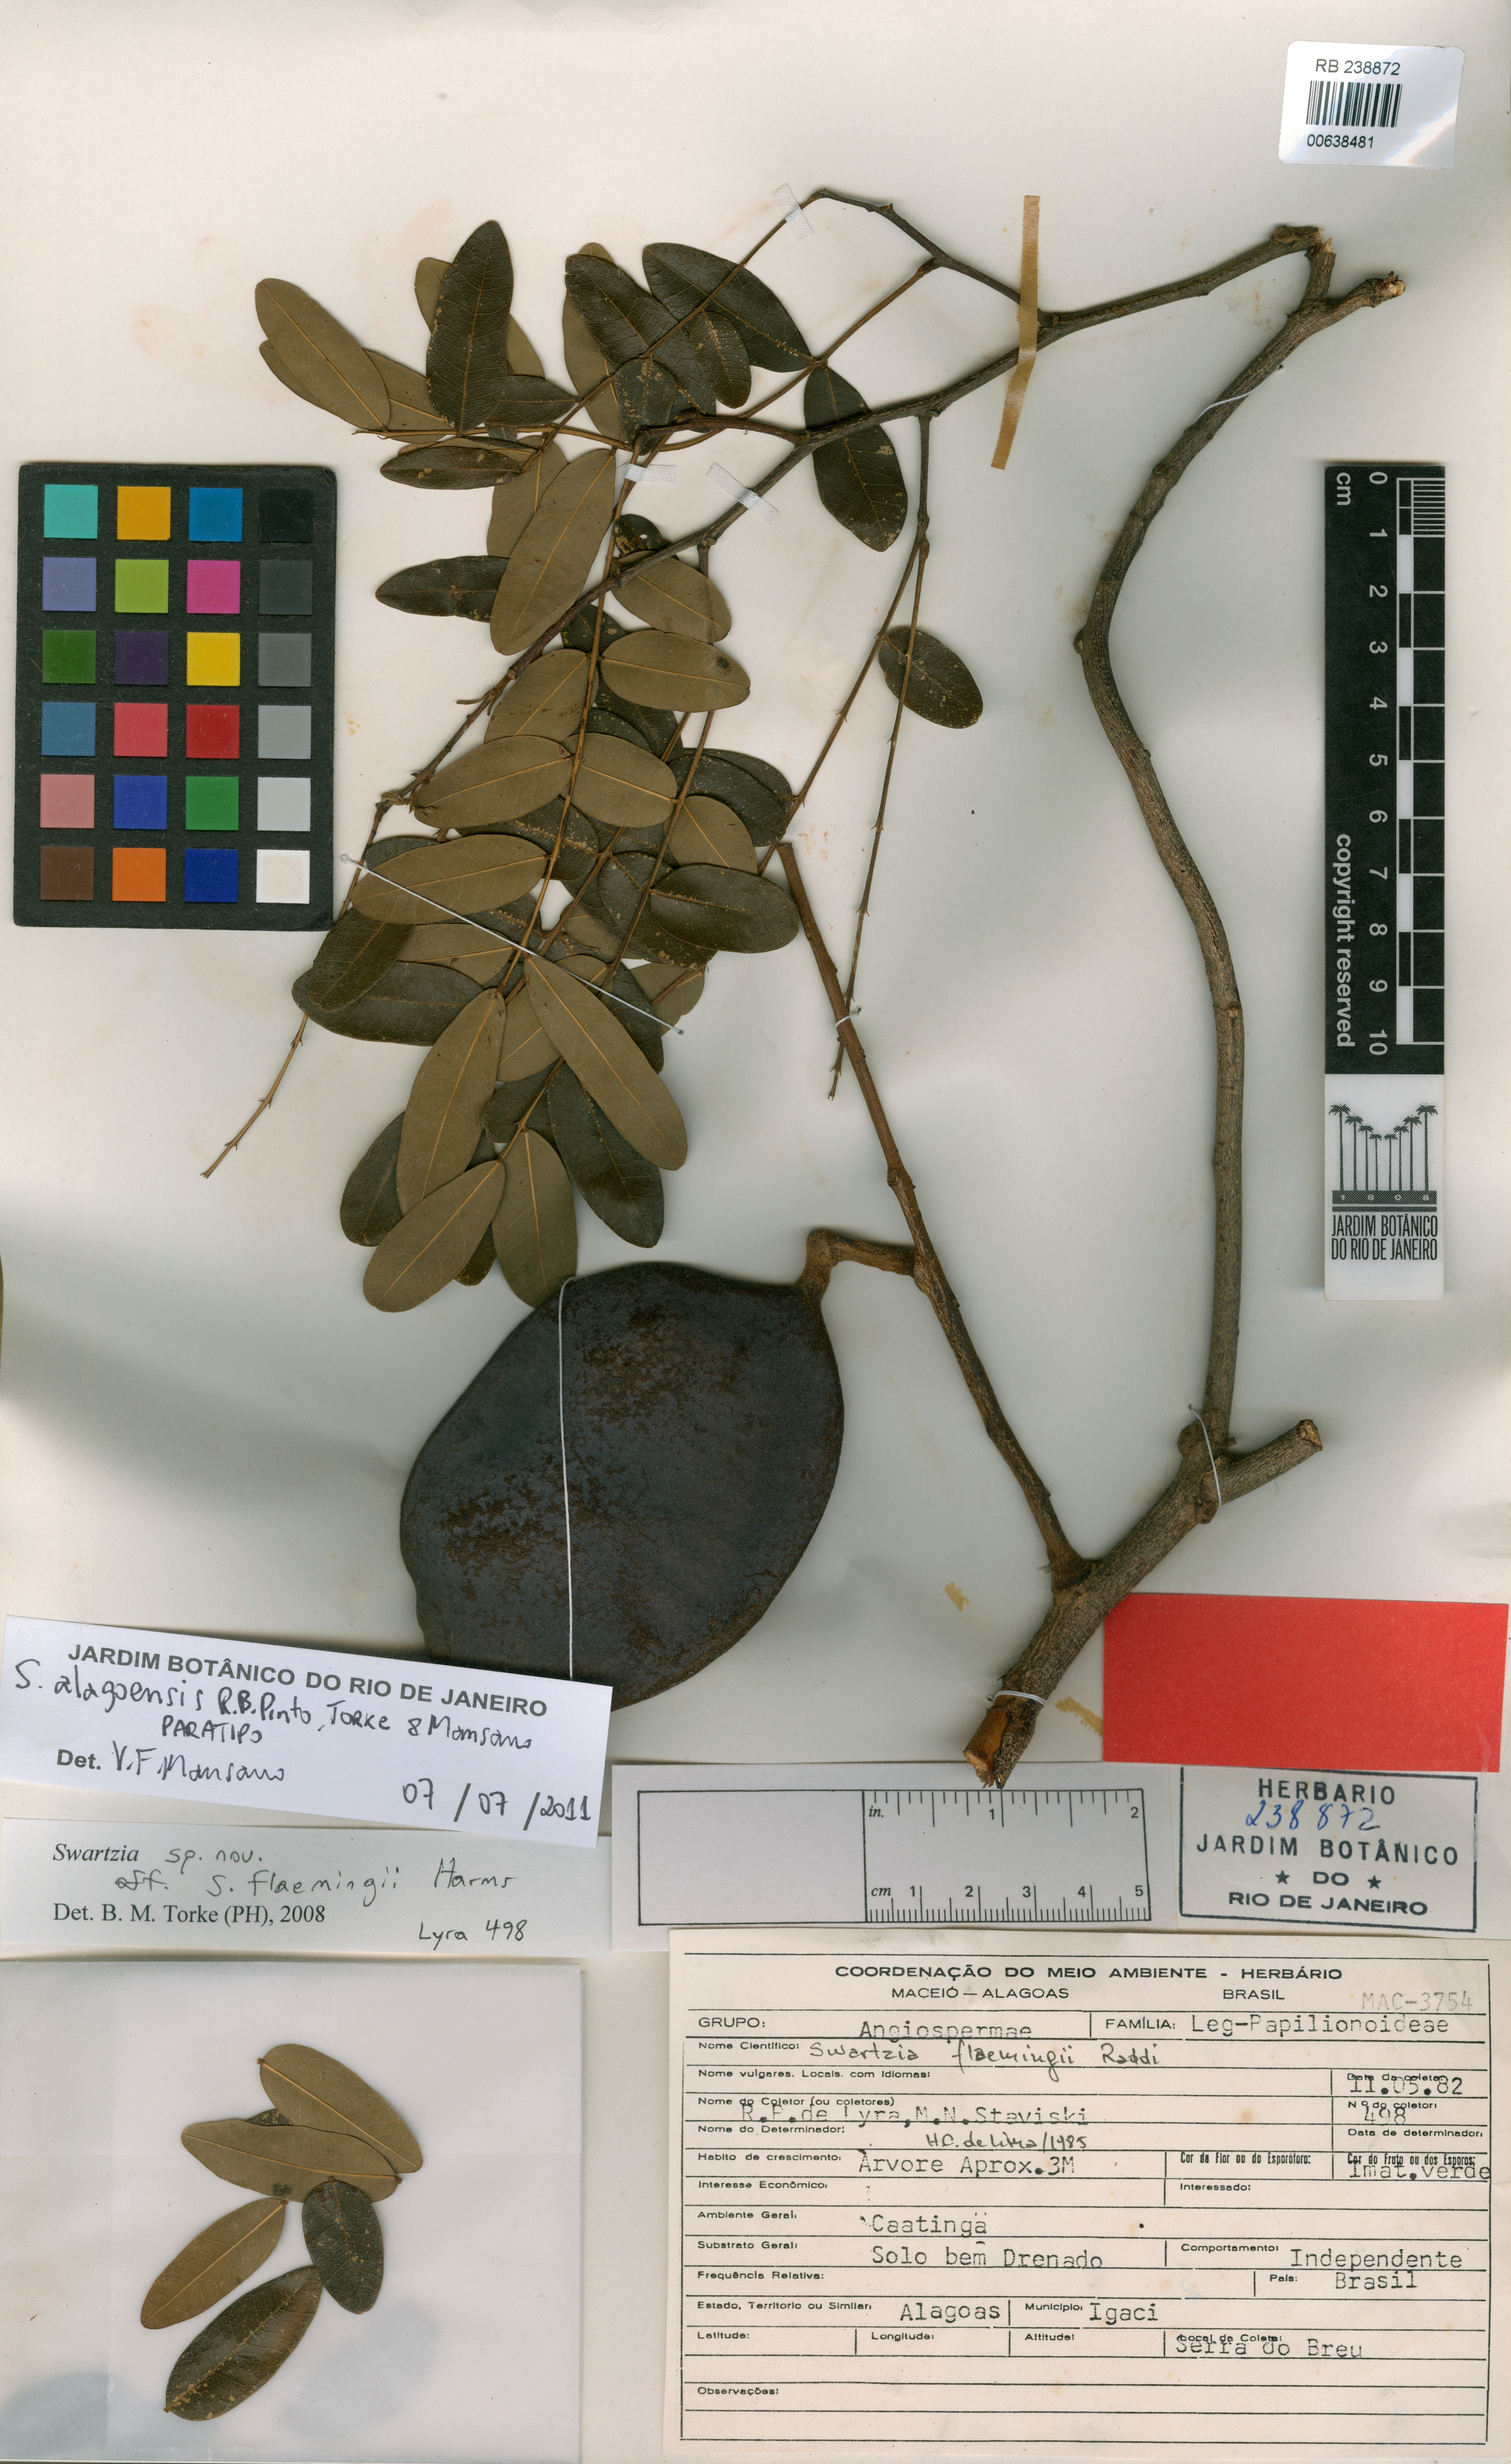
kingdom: Plantae
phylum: Tracheophyta
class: Magnoliopsida
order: Fabales
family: Fabaceae
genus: Swartzia
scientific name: Swartzia alagoensis
